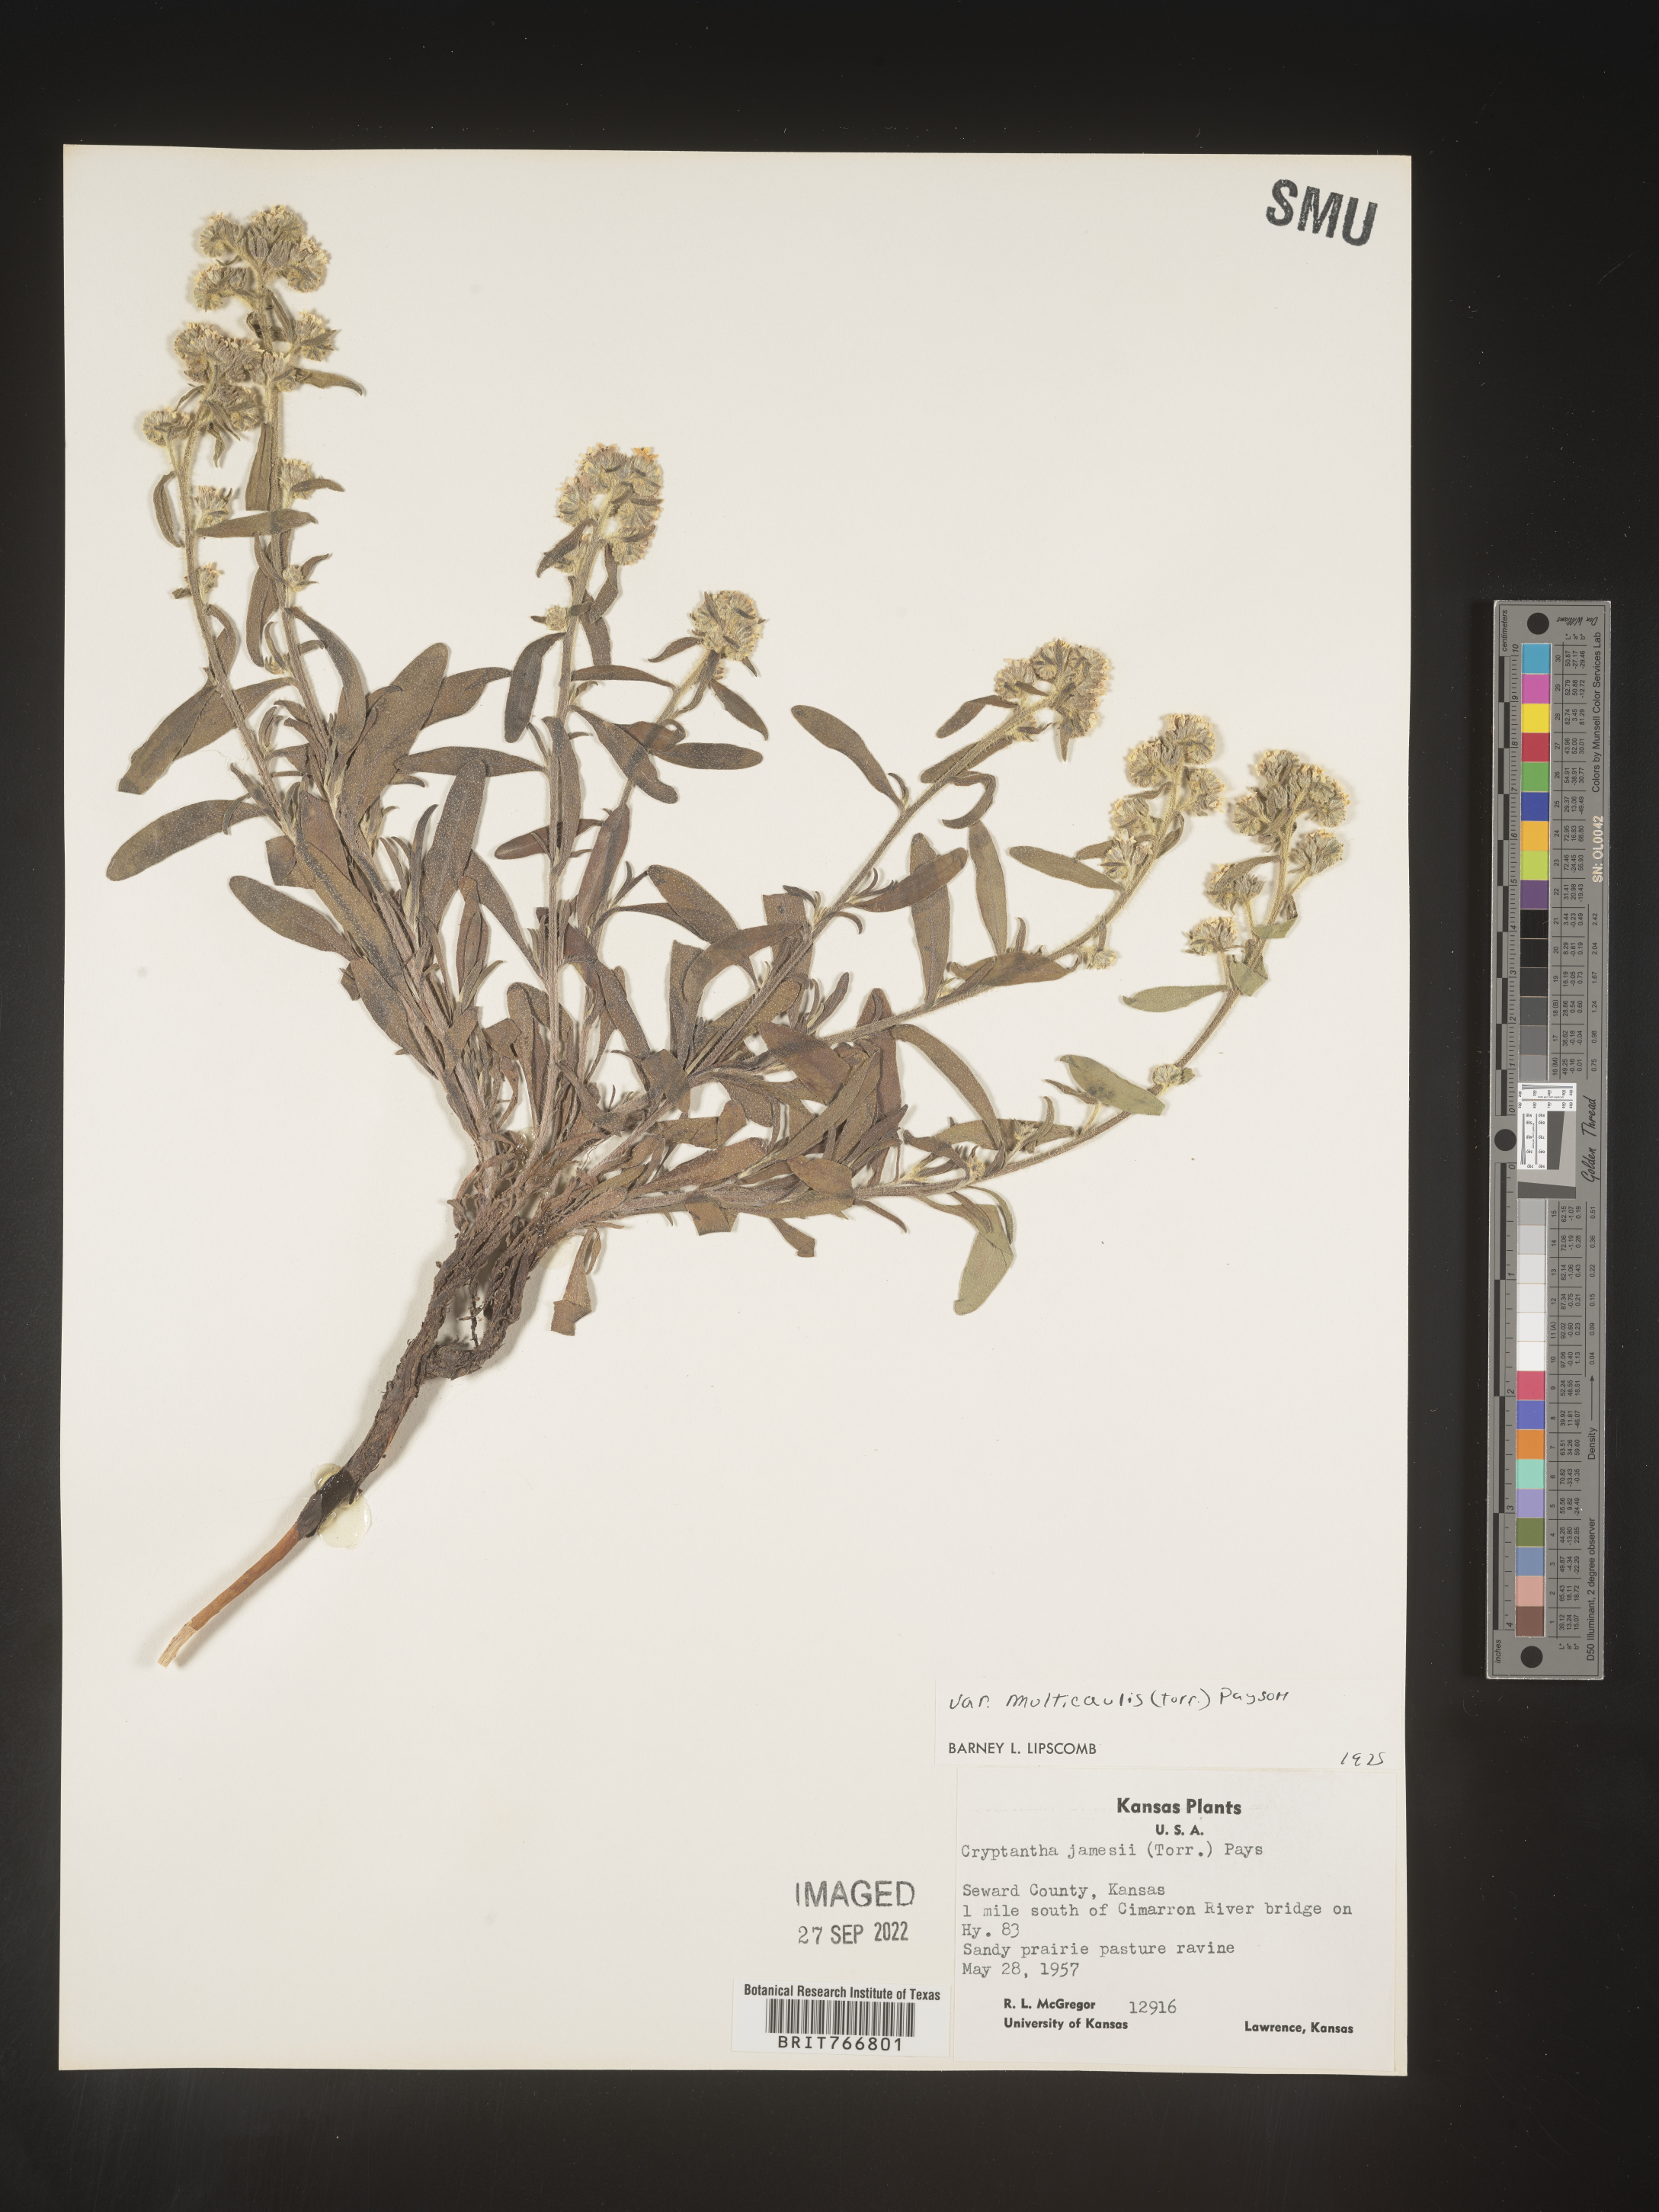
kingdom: Plantae
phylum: Tracheophyta
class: Magnoliopsida
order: Boraginales
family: Boraginaceae
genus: Oreocarya
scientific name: Oreocarya suffruticosa
